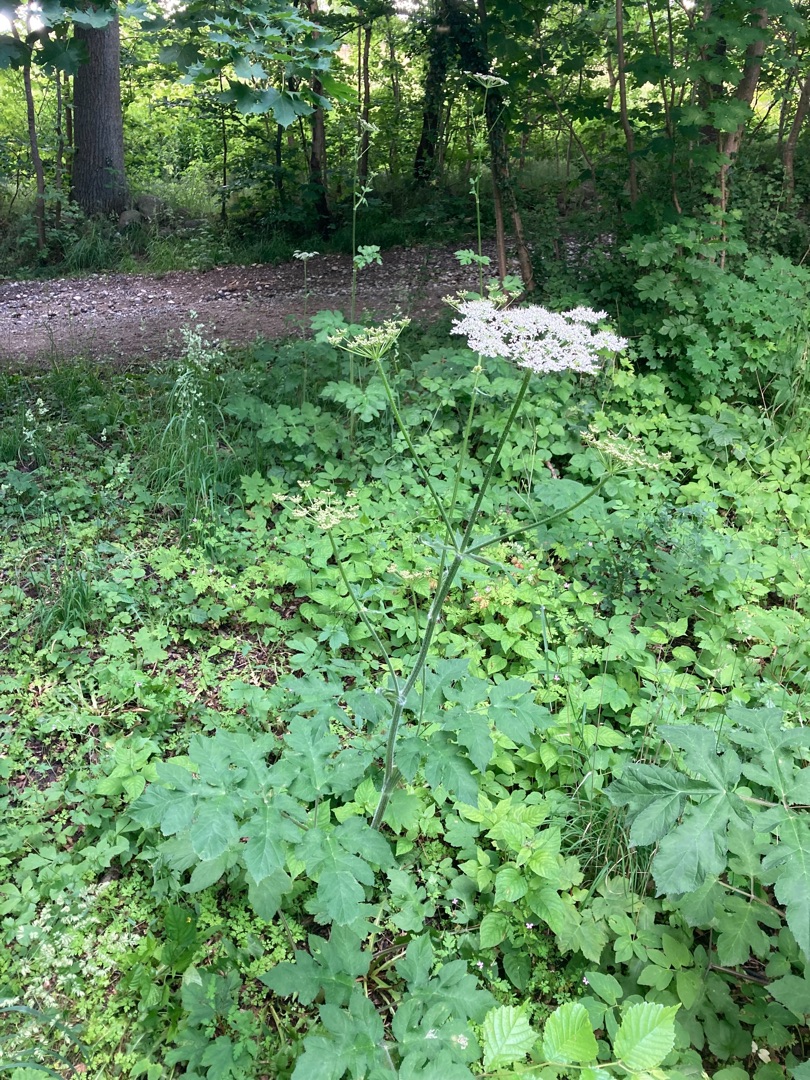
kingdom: Plantae
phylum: Tracheophyta
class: Magnoliopsida
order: Apiales
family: Apiaceae
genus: Heracleum
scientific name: Heracleum sphondylium
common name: Almindelig bjørneklo
